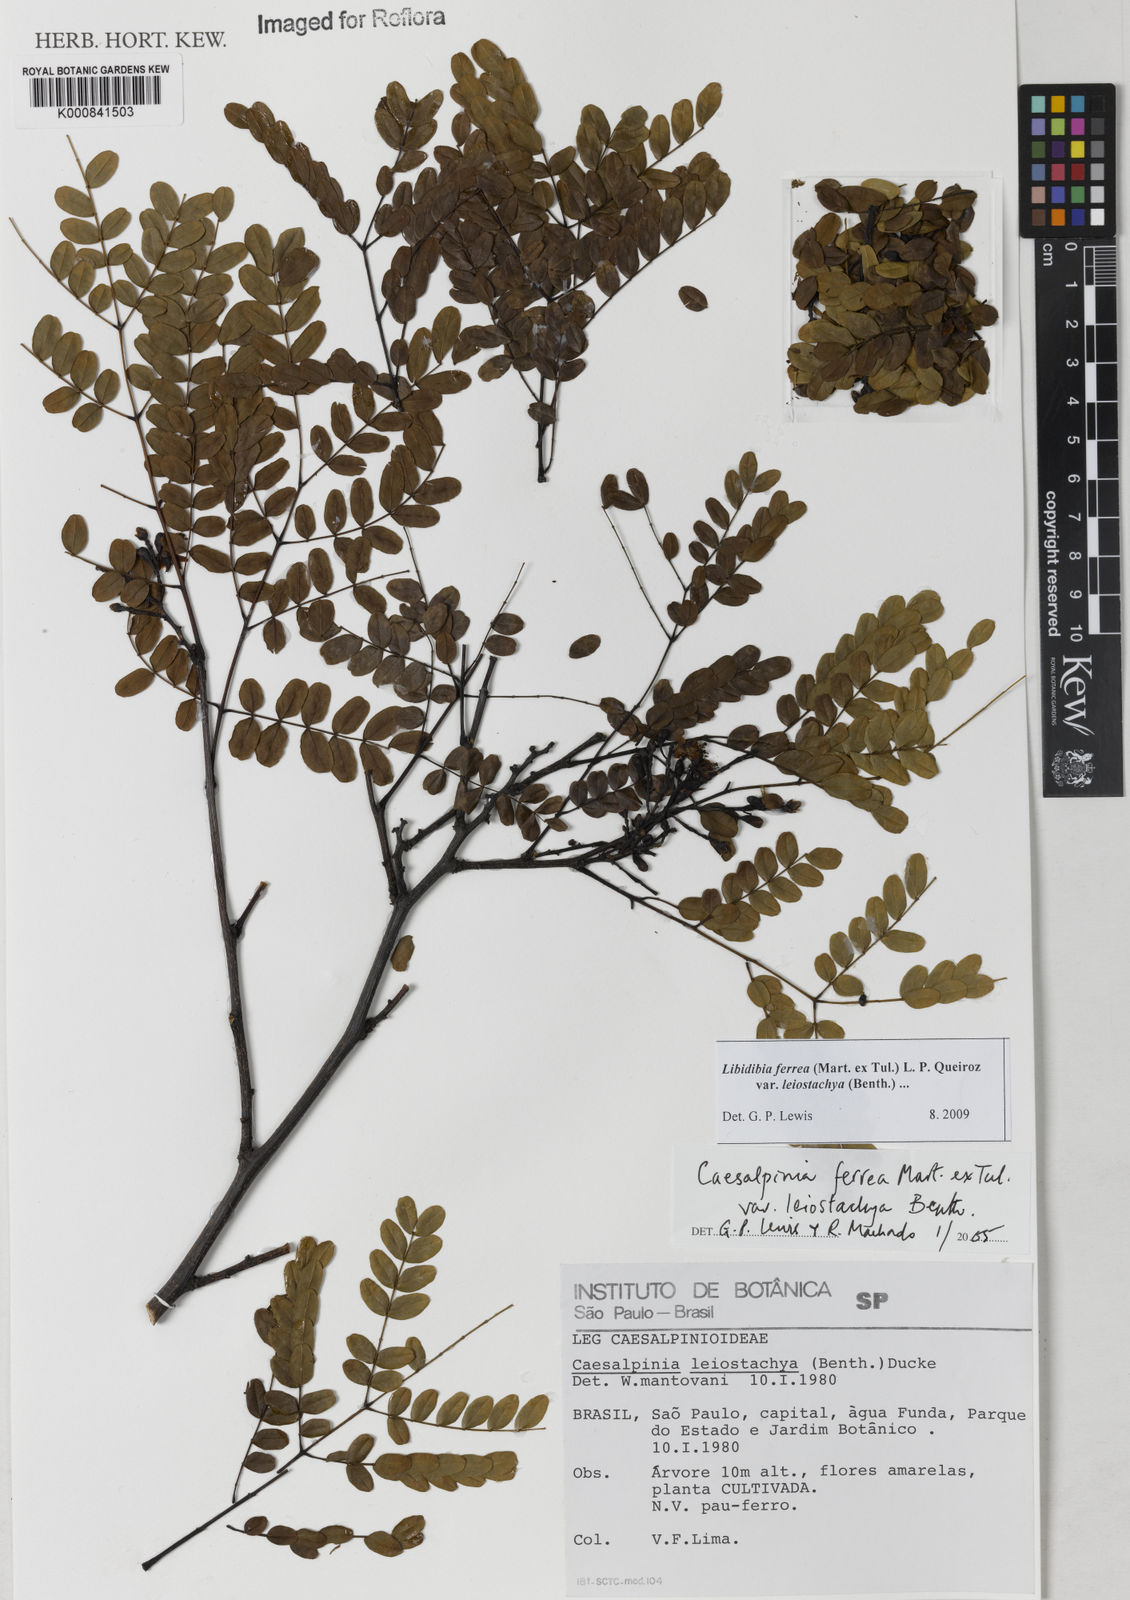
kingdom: Plantae
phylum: Tracheophyta
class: Magnoliopsida
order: Fabales
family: Fabaceae
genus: Libidibia
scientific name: Libidibia ferrea
